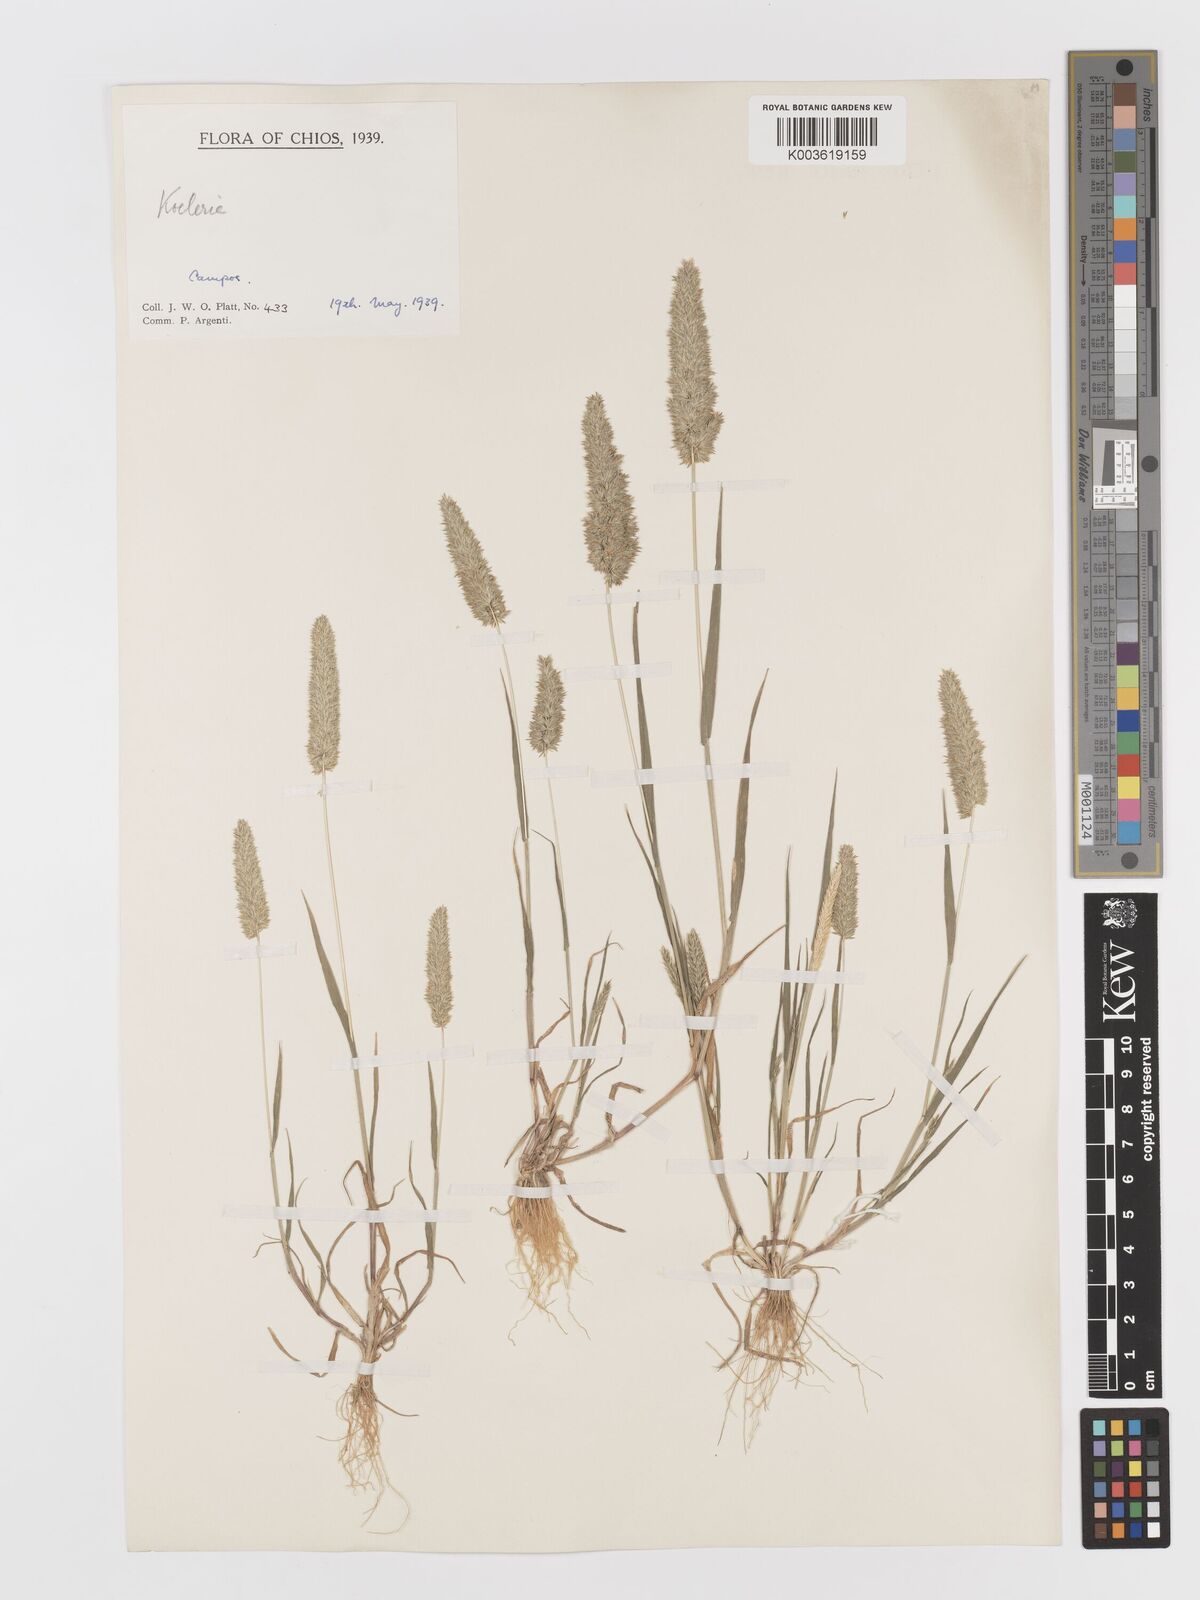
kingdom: Plantae
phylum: Tracheophyta
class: Liliopsida
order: Poales
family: Poaceae
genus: Rostraria
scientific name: Rostraria
